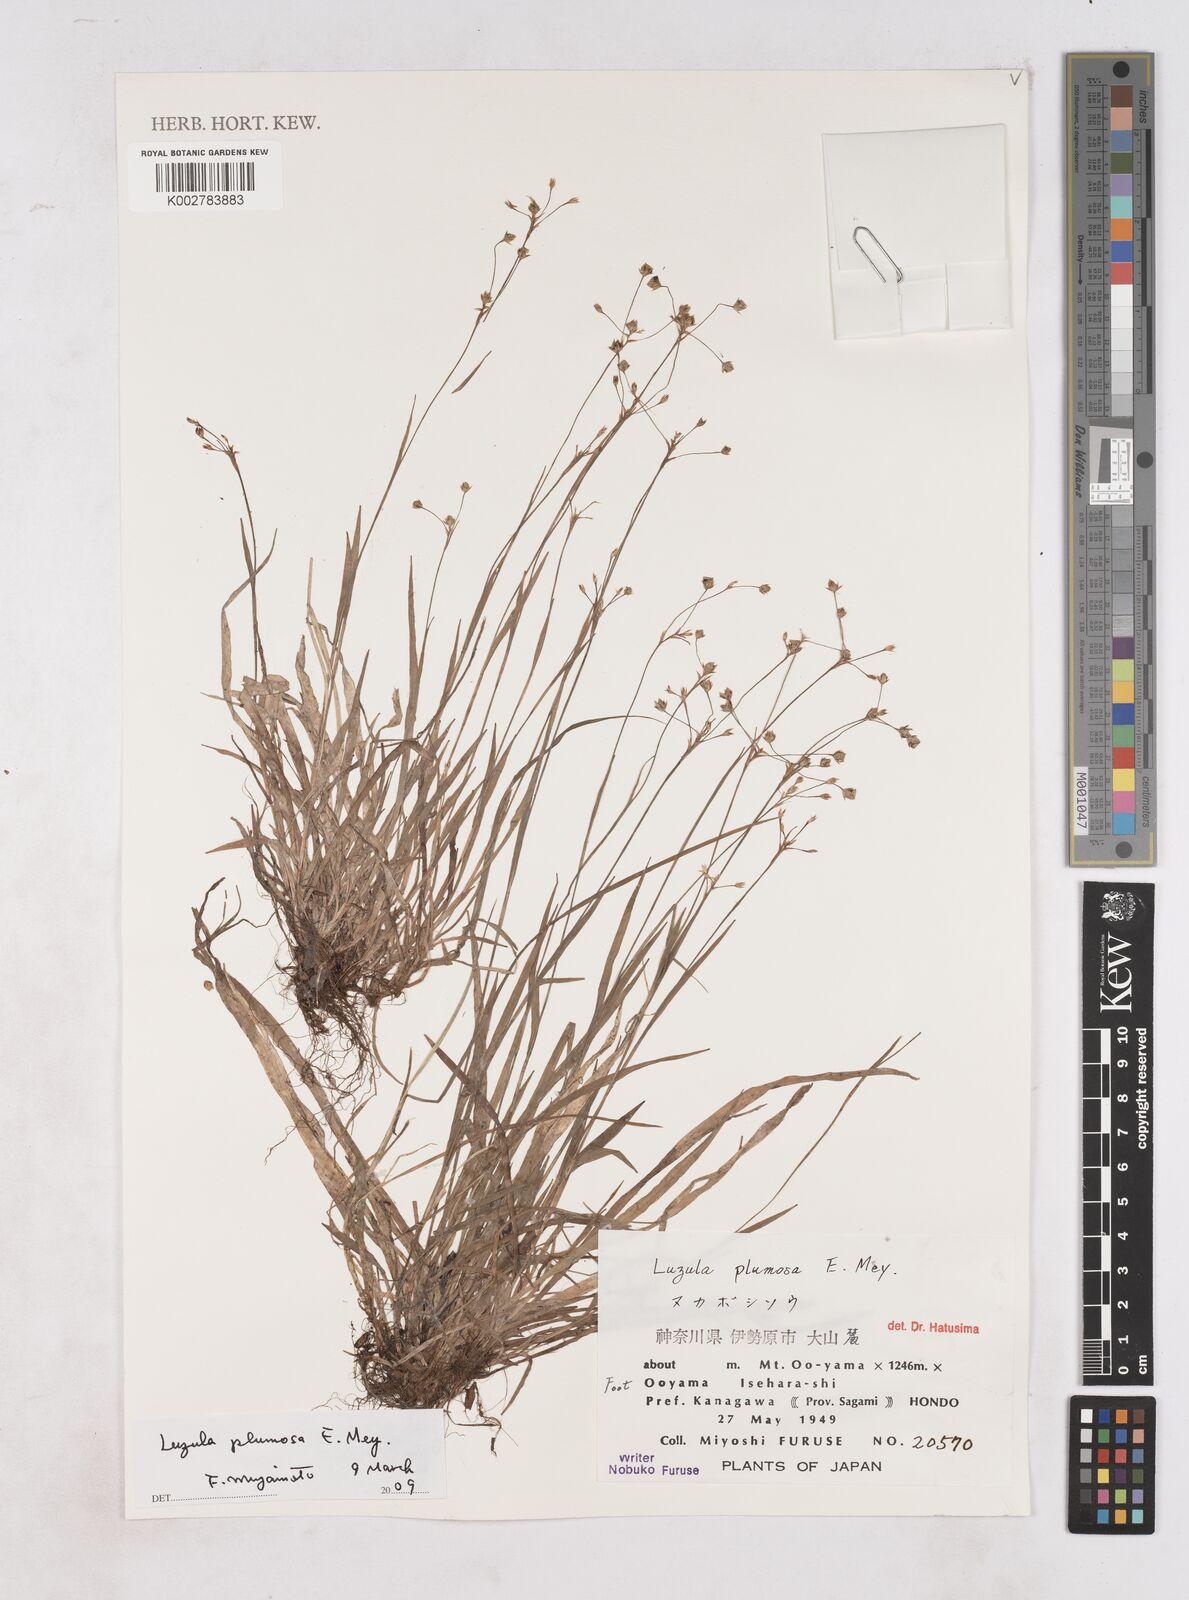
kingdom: Plantae
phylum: Tracheophyta
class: Liliopsida
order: Poales
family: Juncaceae
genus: Luzula
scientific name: Luzula plumosa
